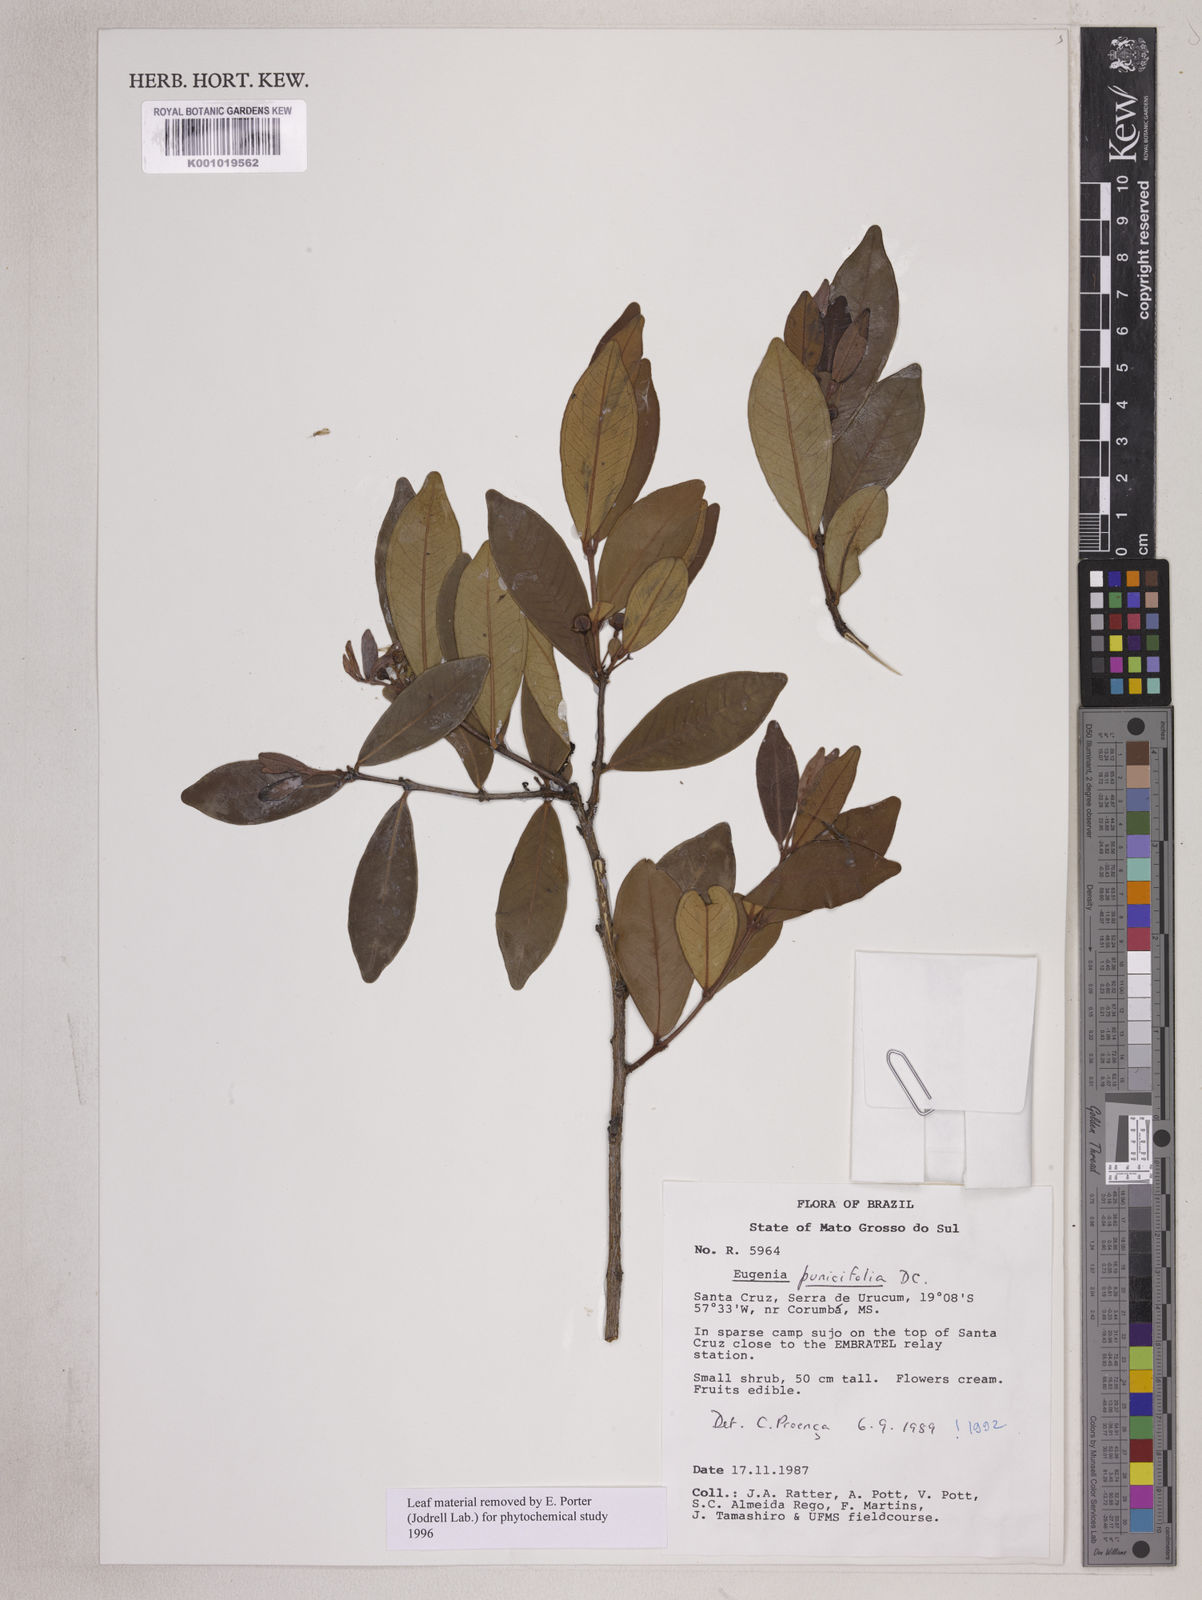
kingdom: Plantae
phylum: Tracheophyta
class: Magnoliopsida
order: Myrtales
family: Myrtaceae
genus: Eugenia
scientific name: Eugenia punicifolia
